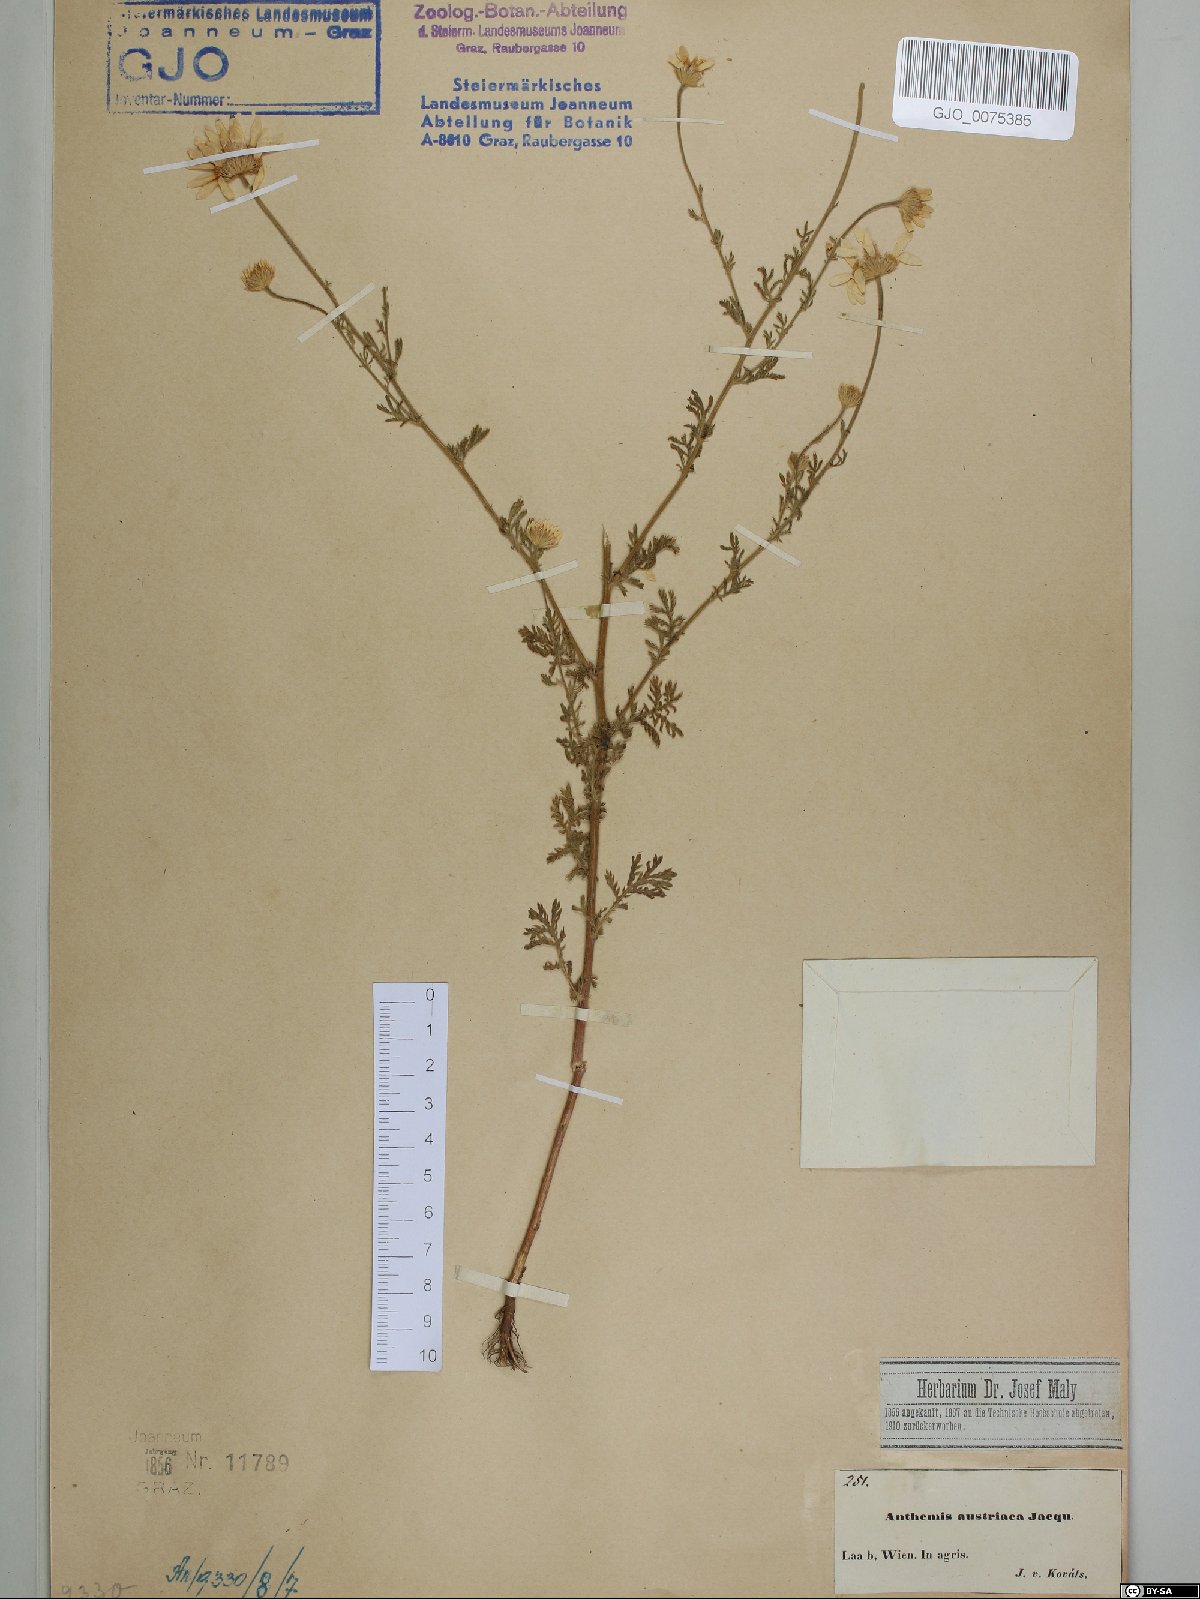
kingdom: Plantae
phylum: Tracheophyta
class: Magnoliopsida
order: Asterales
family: Asteraceae
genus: Cota
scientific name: Cota austriaca
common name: Austrian chamomile
